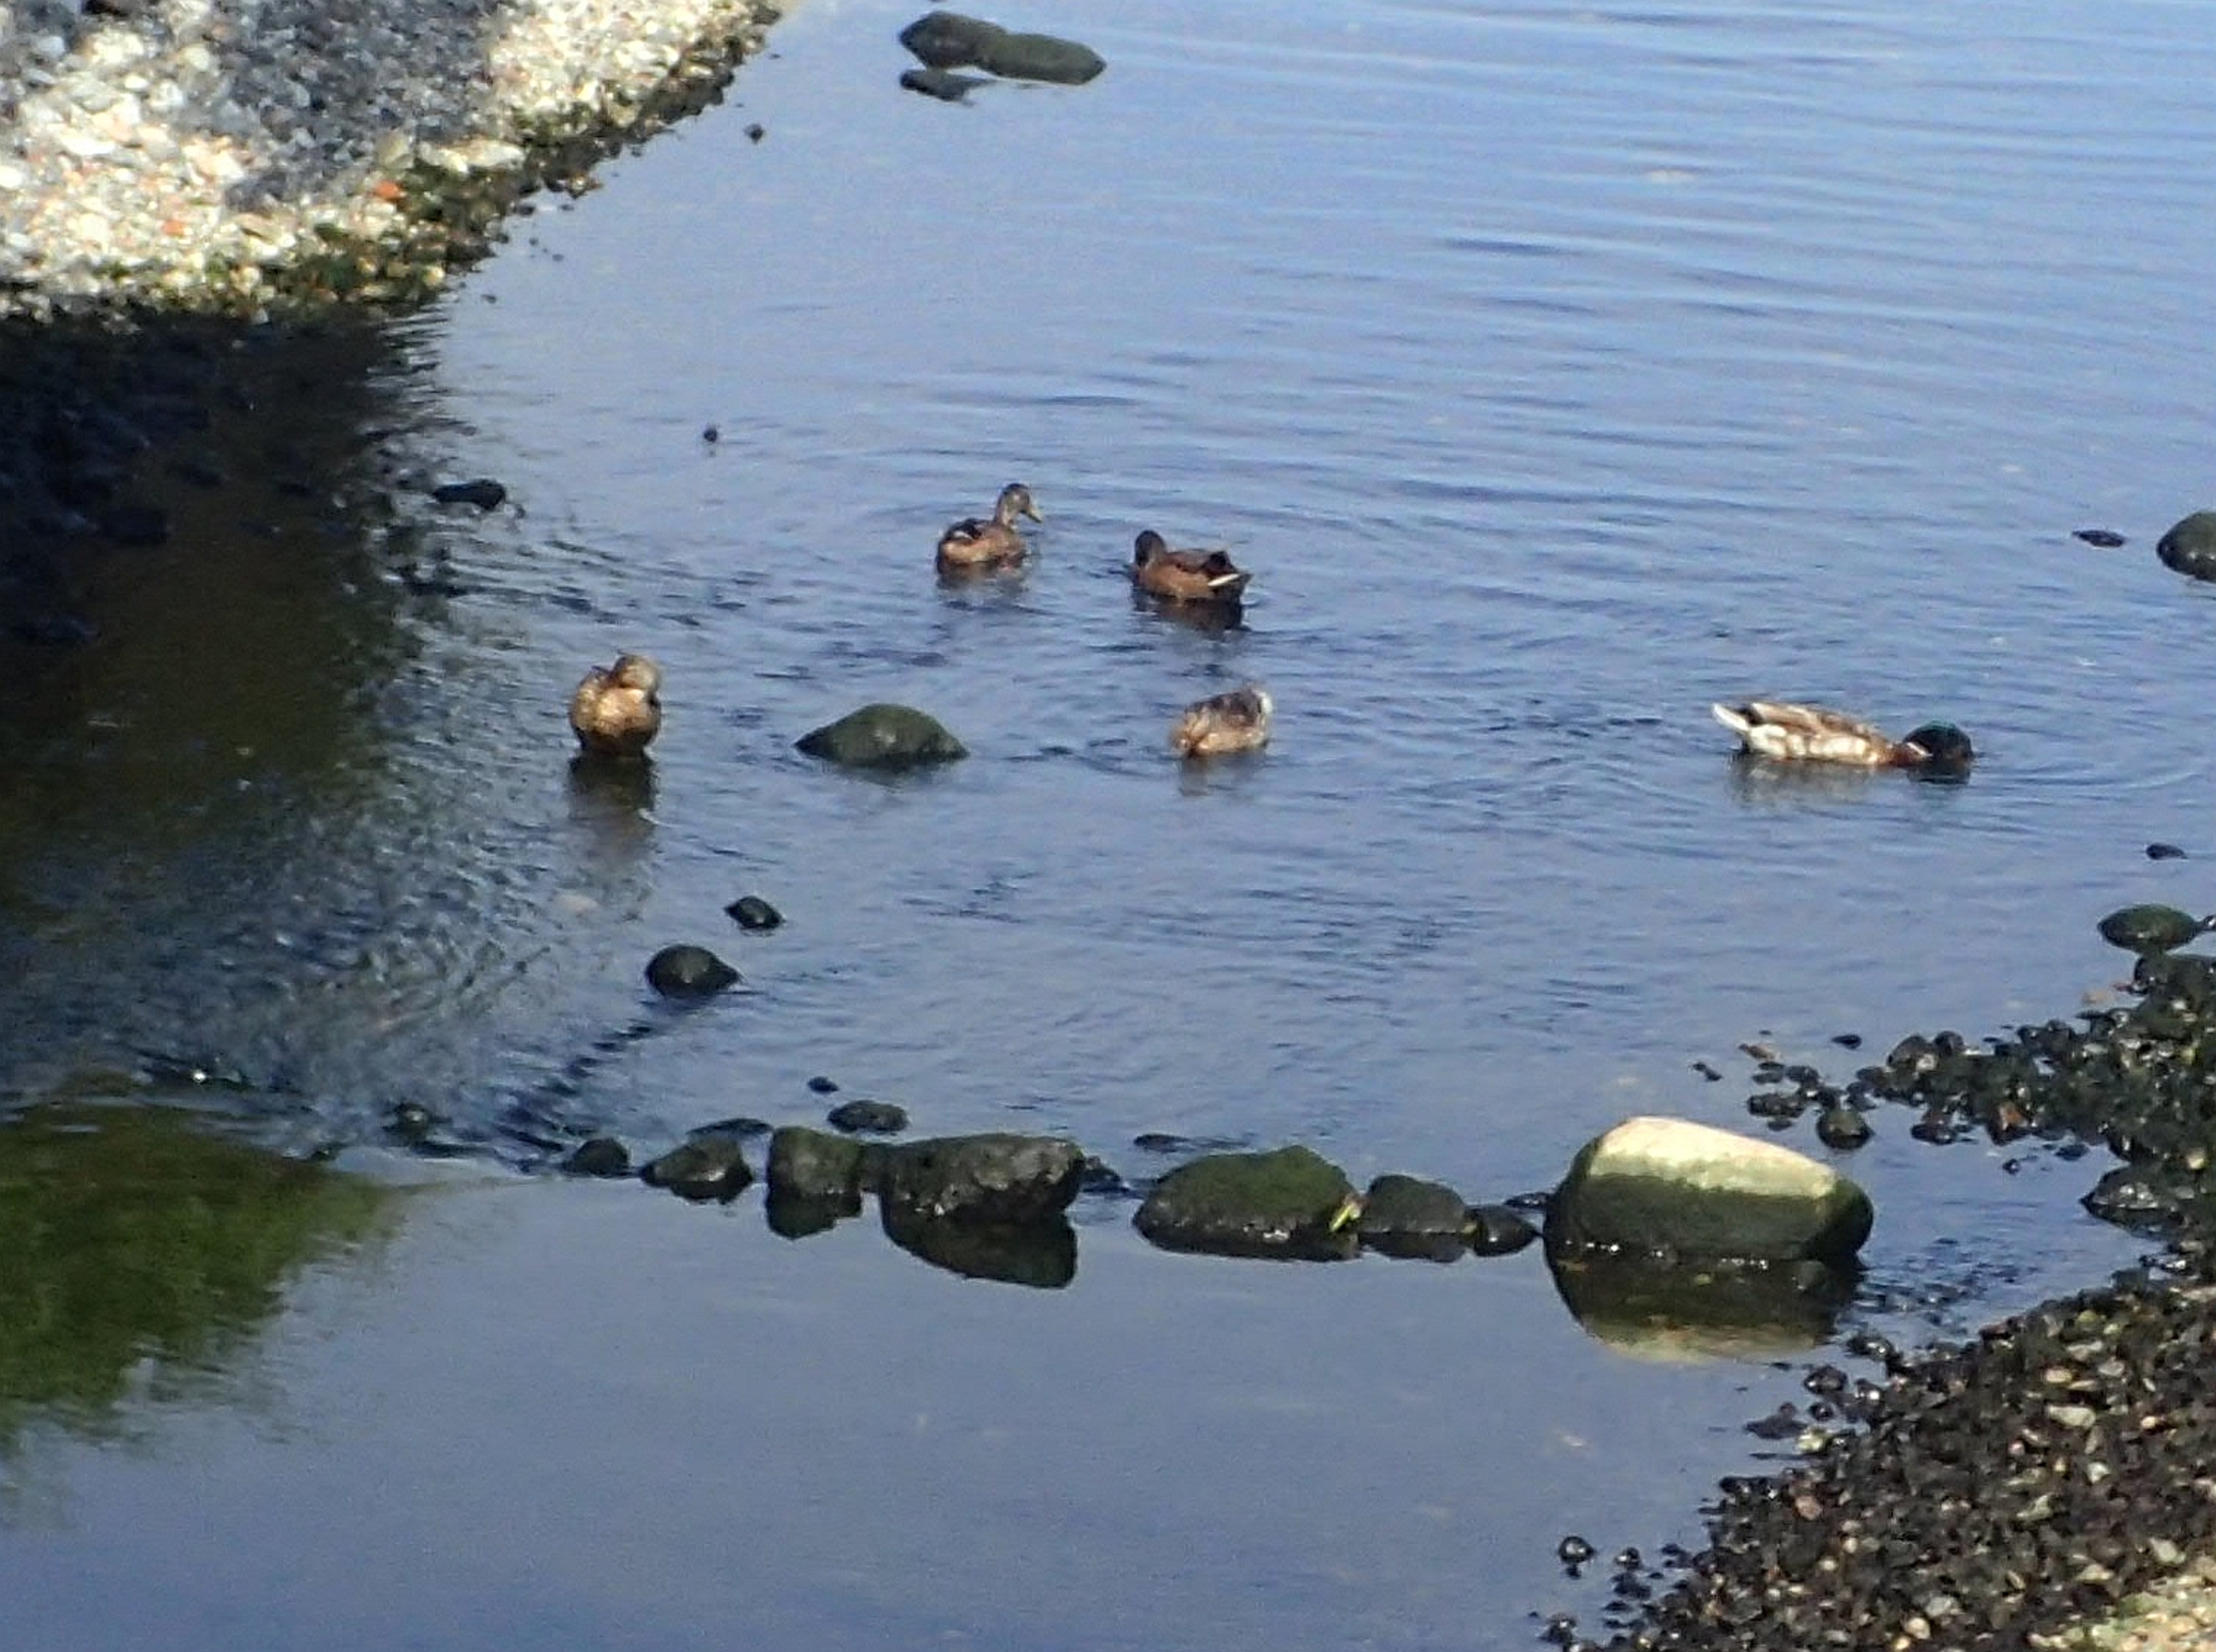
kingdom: Animalia
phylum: Chordata
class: Aves
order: Anseriformes
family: Anatidae
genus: Anas
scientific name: Anas platyrhynchos
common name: Gråand
